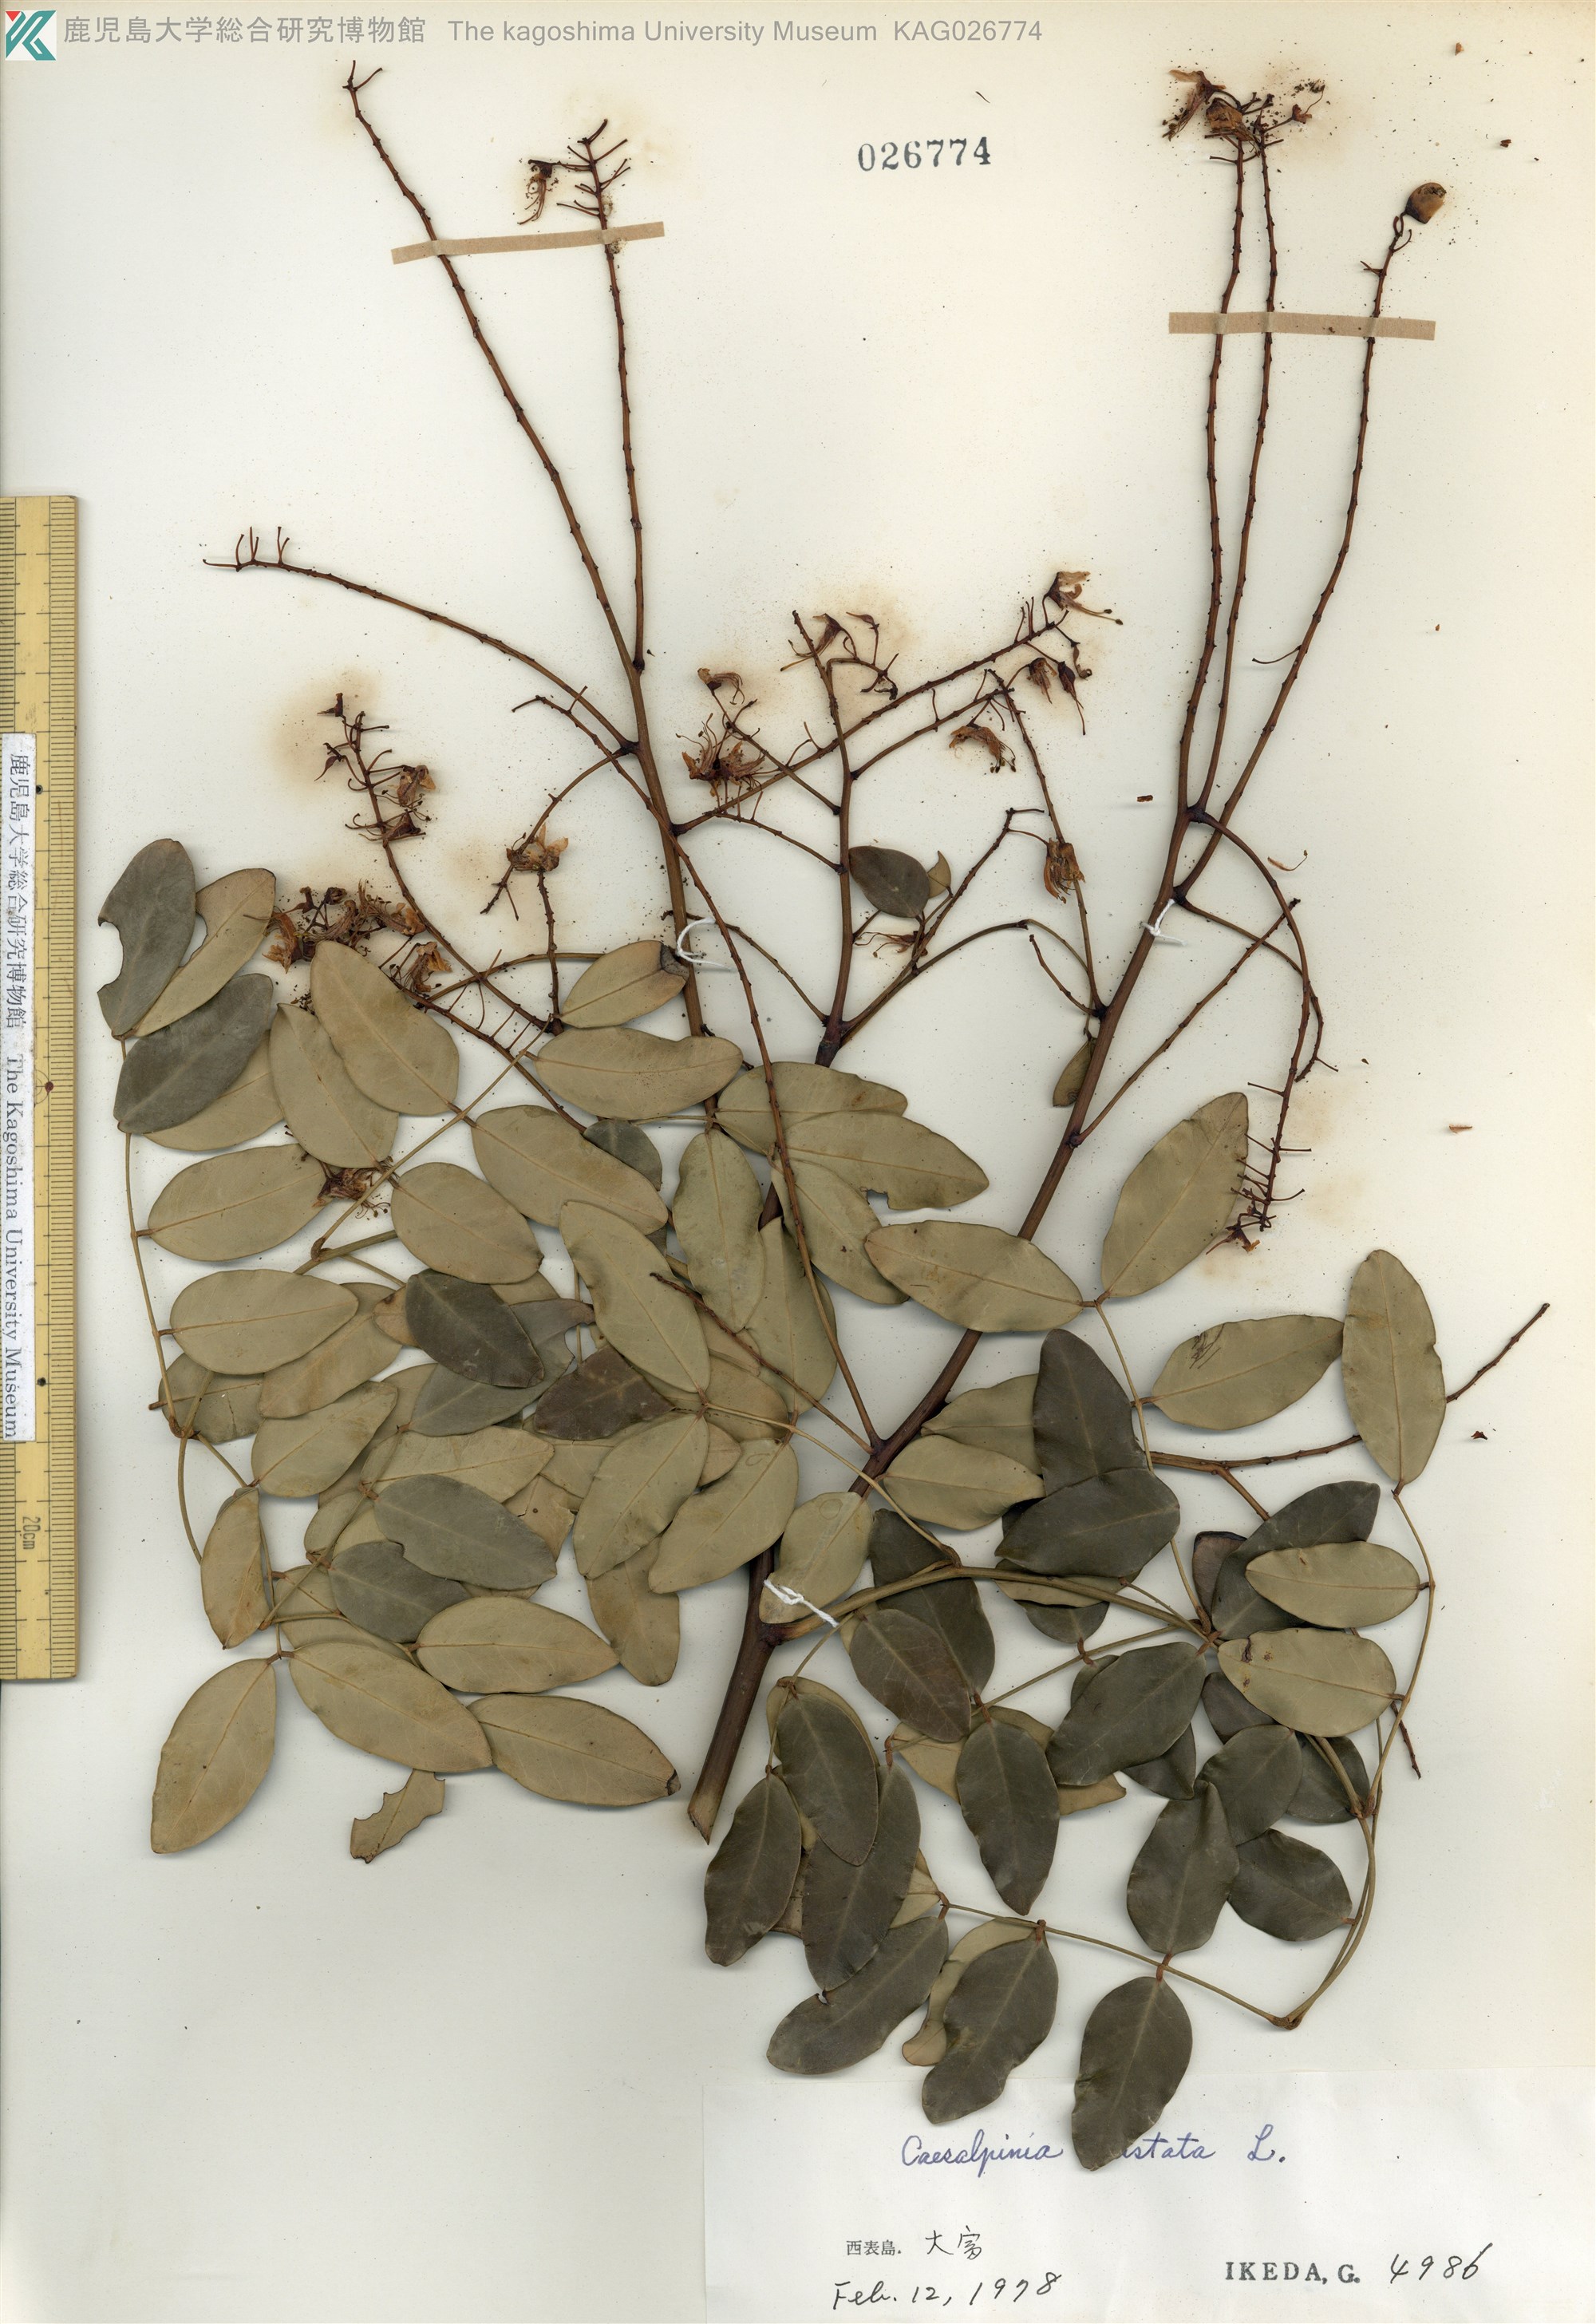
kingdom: Plantae
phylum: Tracheophyta
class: Magnoliopsida
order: Fabales
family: Fabaceae
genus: Caesalpinia
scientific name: Caesalpinia Ticanto crista
